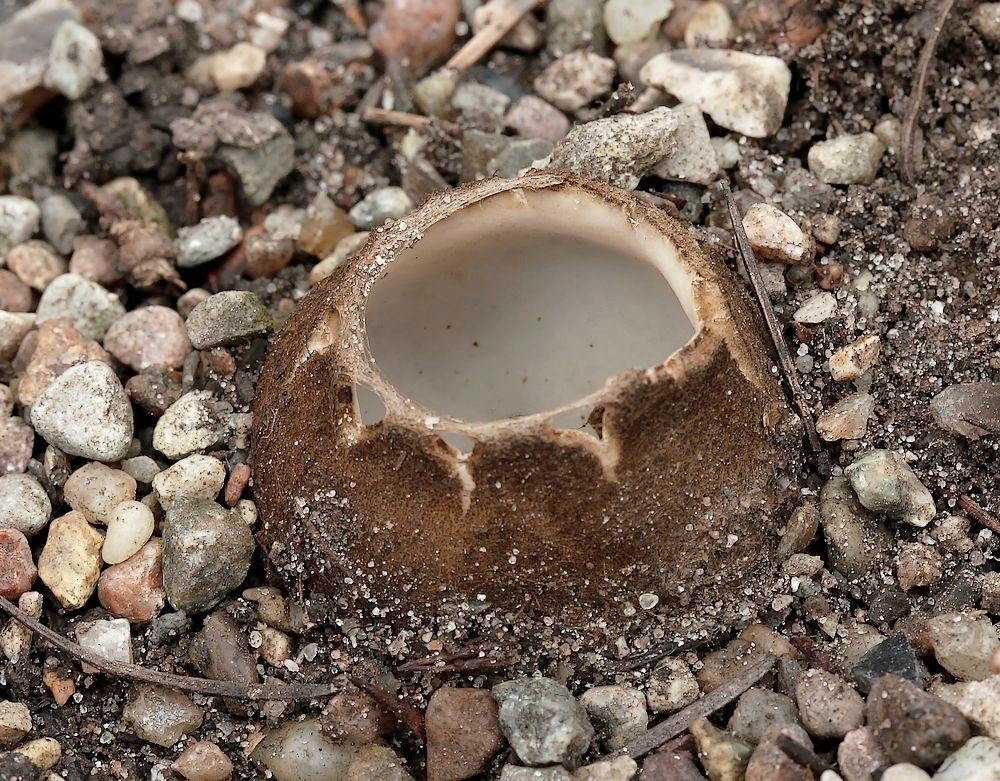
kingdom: Fungi
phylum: Ascomycota
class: Pezizomycetes
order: Pezizales
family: Pyronemataceae
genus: Geopora
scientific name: Geopora sumneriana
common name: vår-jordbæger
